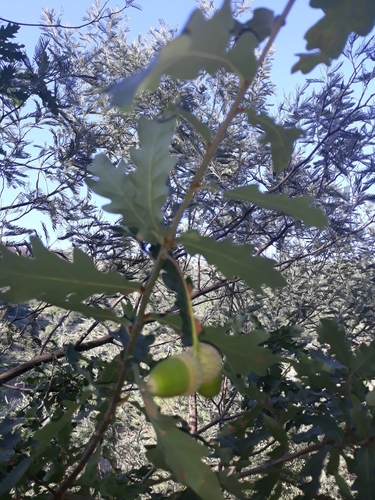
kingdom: Plantae
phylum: Tracheophyta
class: Magnoliopsida
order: Fagales
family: Fagaceae
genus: Quercus
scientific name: Quercus robur
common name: Pedunculate oak
